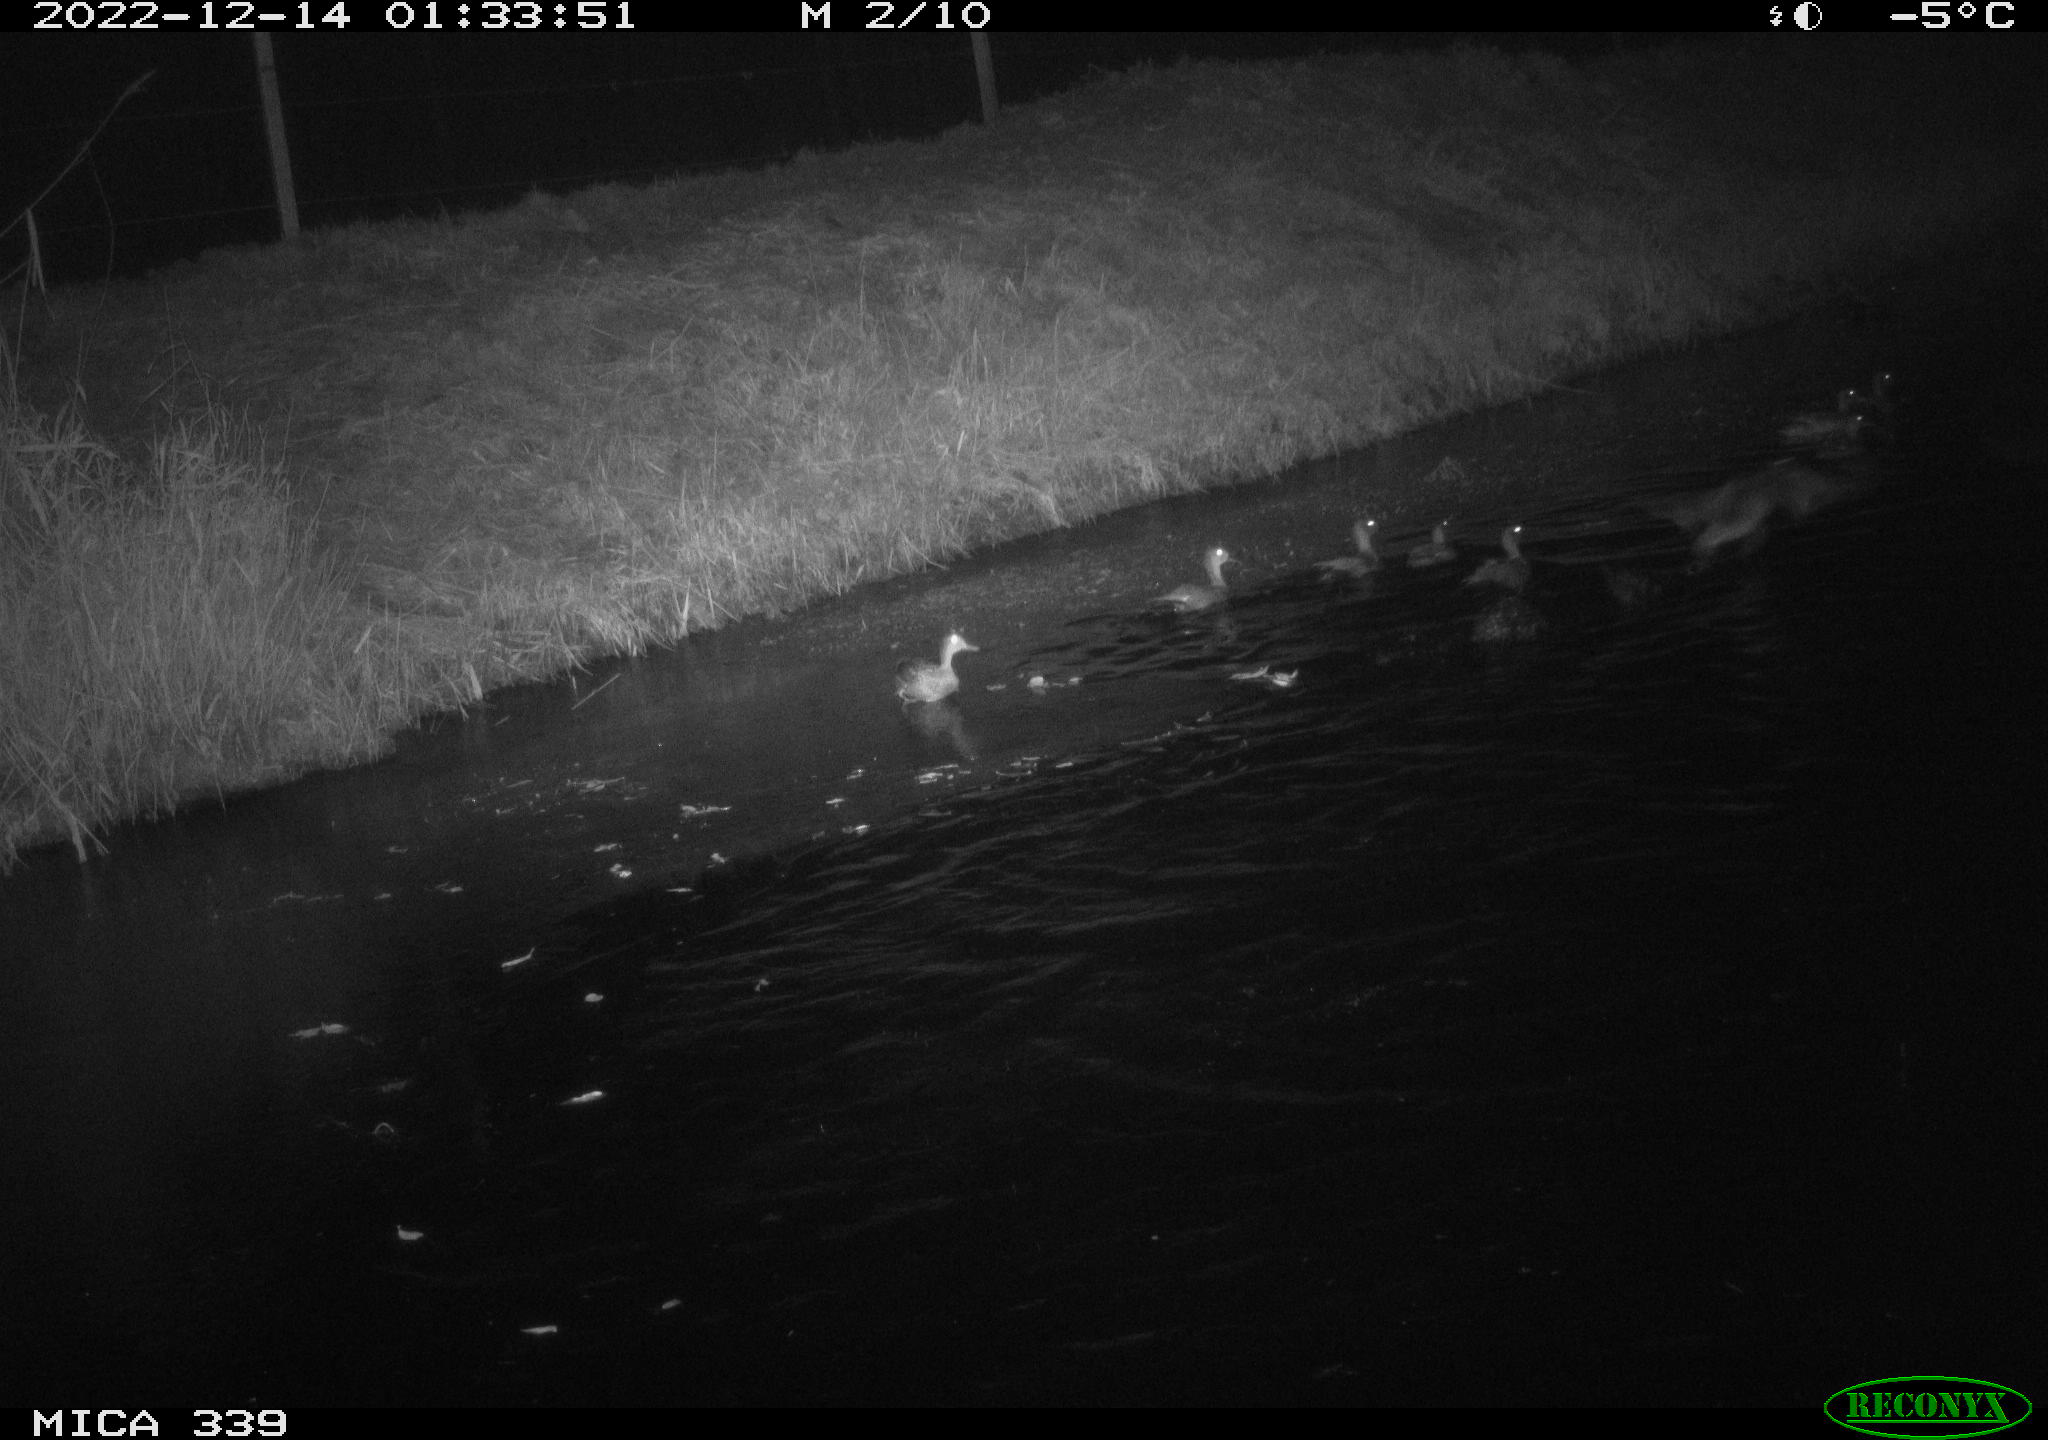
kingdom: Animalia
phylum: Chordata
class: Aves
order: Anseriformes
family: Anatidae
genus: Anas
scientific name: Anas
